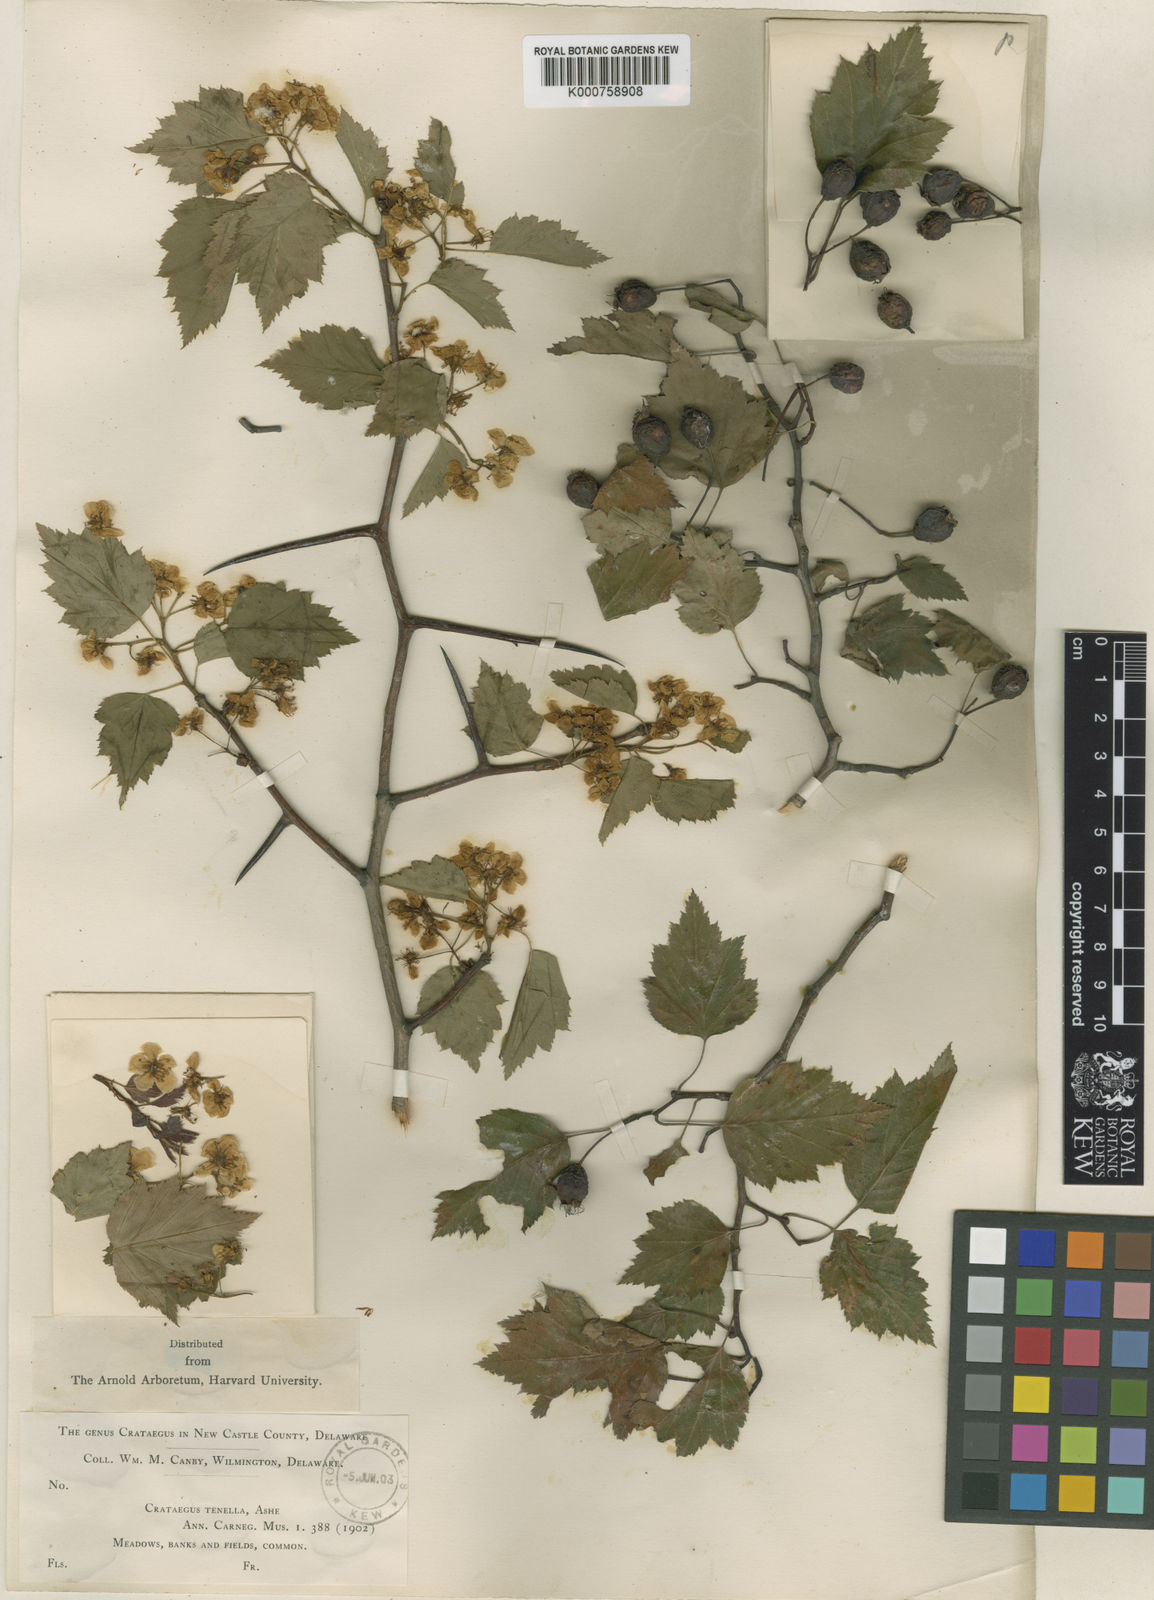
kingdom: Plantae
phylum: Tracheophyta
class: Magnoliopsida
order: Rosales
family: Rosaceae
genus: Crataegus
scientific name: Crataegus
